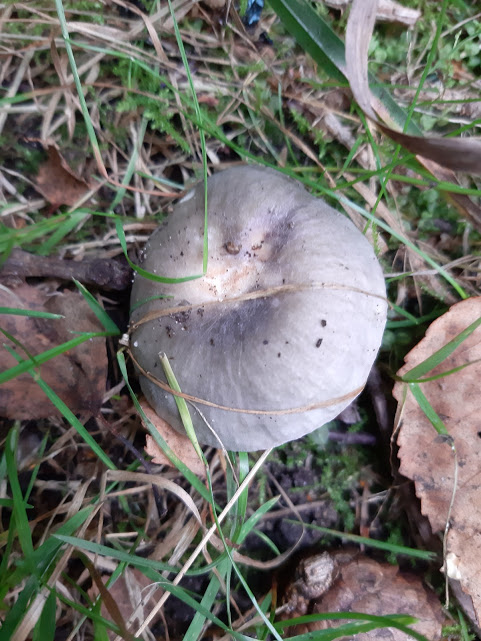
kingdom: Fungi
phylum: Basidiomycota
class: Agaricomycetes
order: Russulales
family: Russulaceae
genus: Russula
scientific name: Russula
